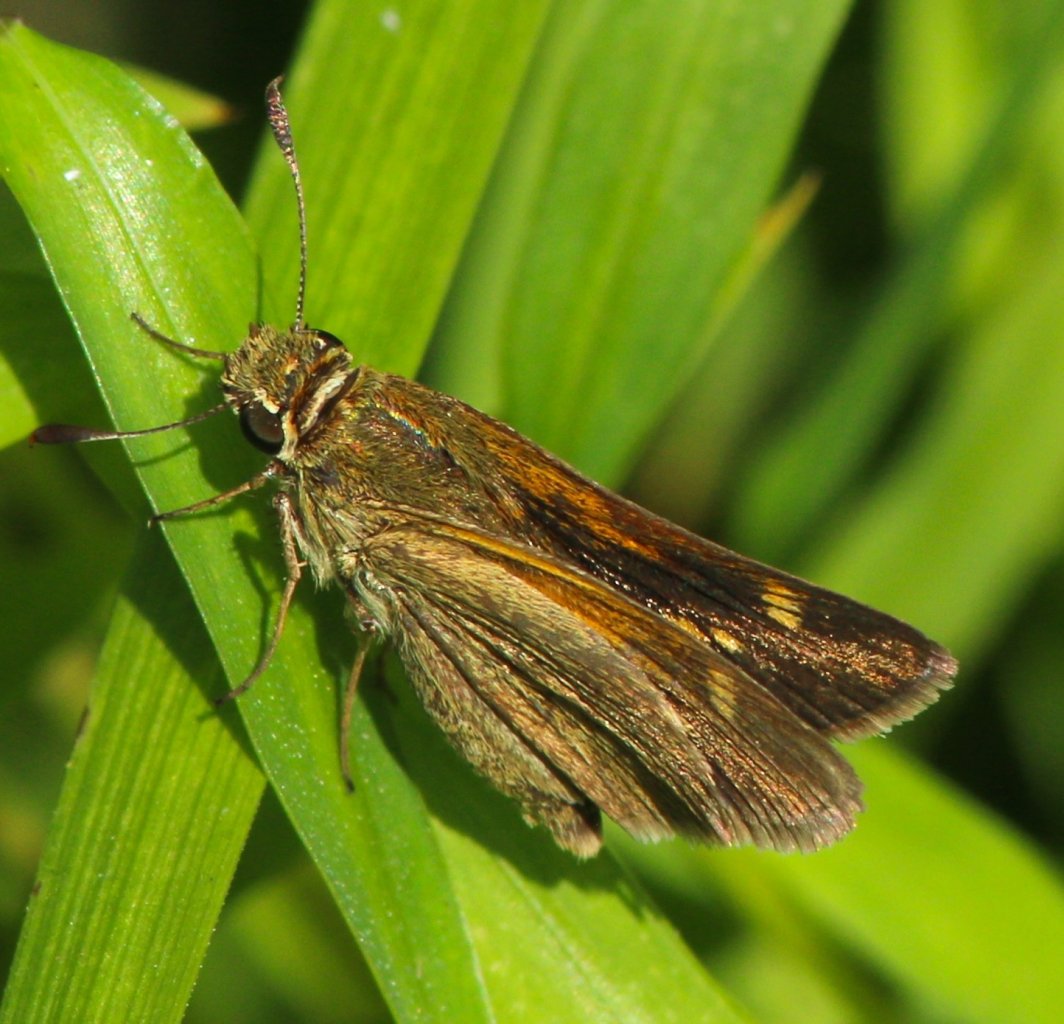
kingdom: Animalia
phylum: Arthropoda
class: Insecta
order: Lepidoptera
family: Hesperiidae
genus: Polites
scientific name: Polites themistocles
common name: Tawny-edged Skipper
